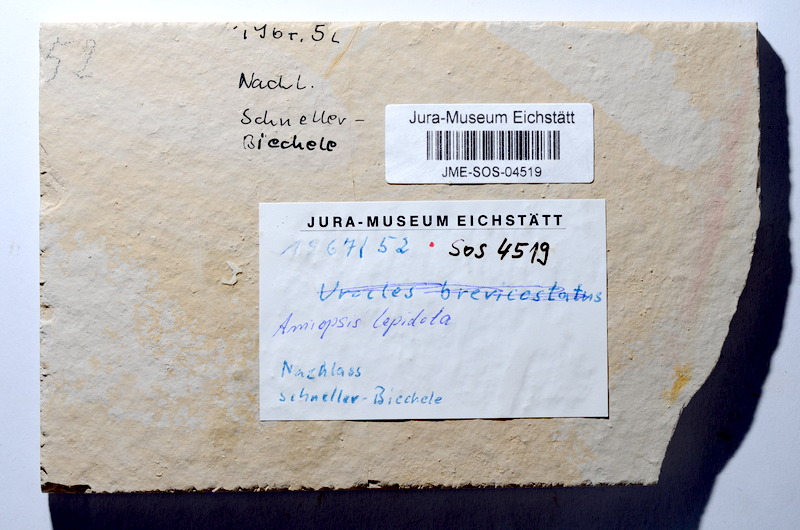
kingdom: Animalia
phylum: Chordata
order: Amiiformes
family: Amiidae
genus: Amiopsis
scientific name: Amiopsis lepidota
